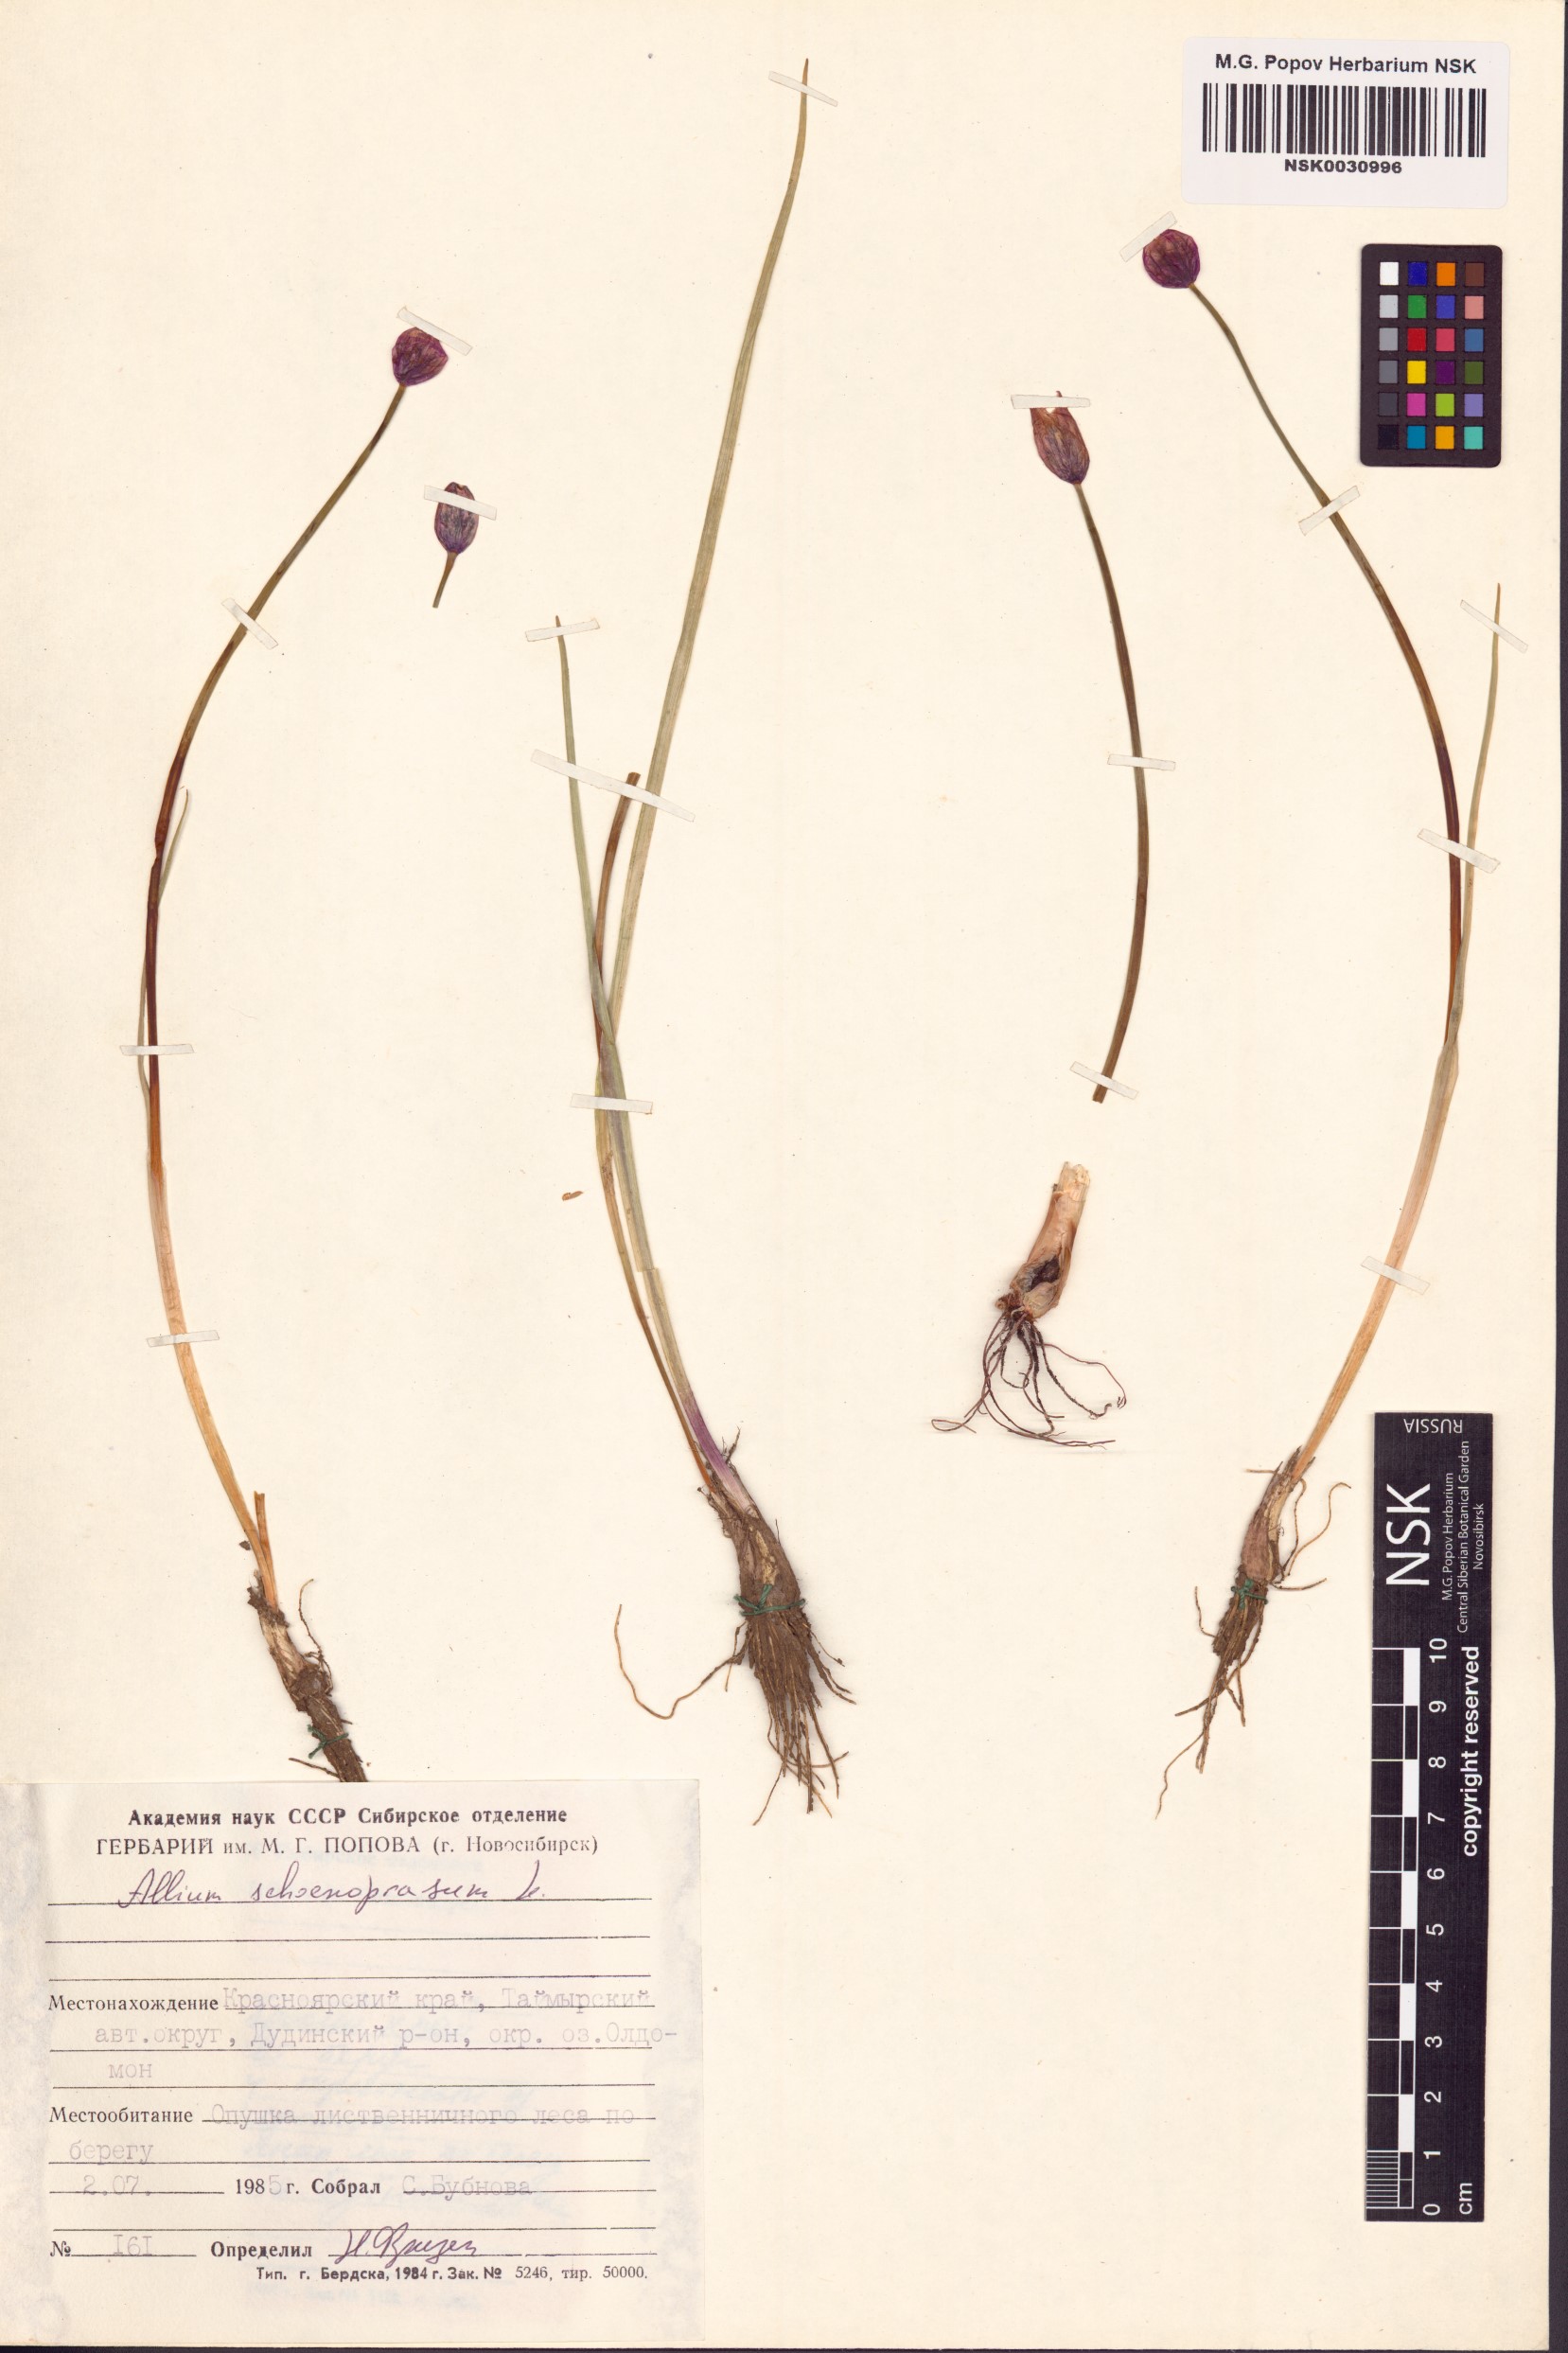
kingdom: Plantae
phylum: Tracheophyta
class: Liliopsida
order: Asparagales
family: Amaryllidaceae
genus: Allium
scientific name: Allium schoenoprasum
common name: Chives
